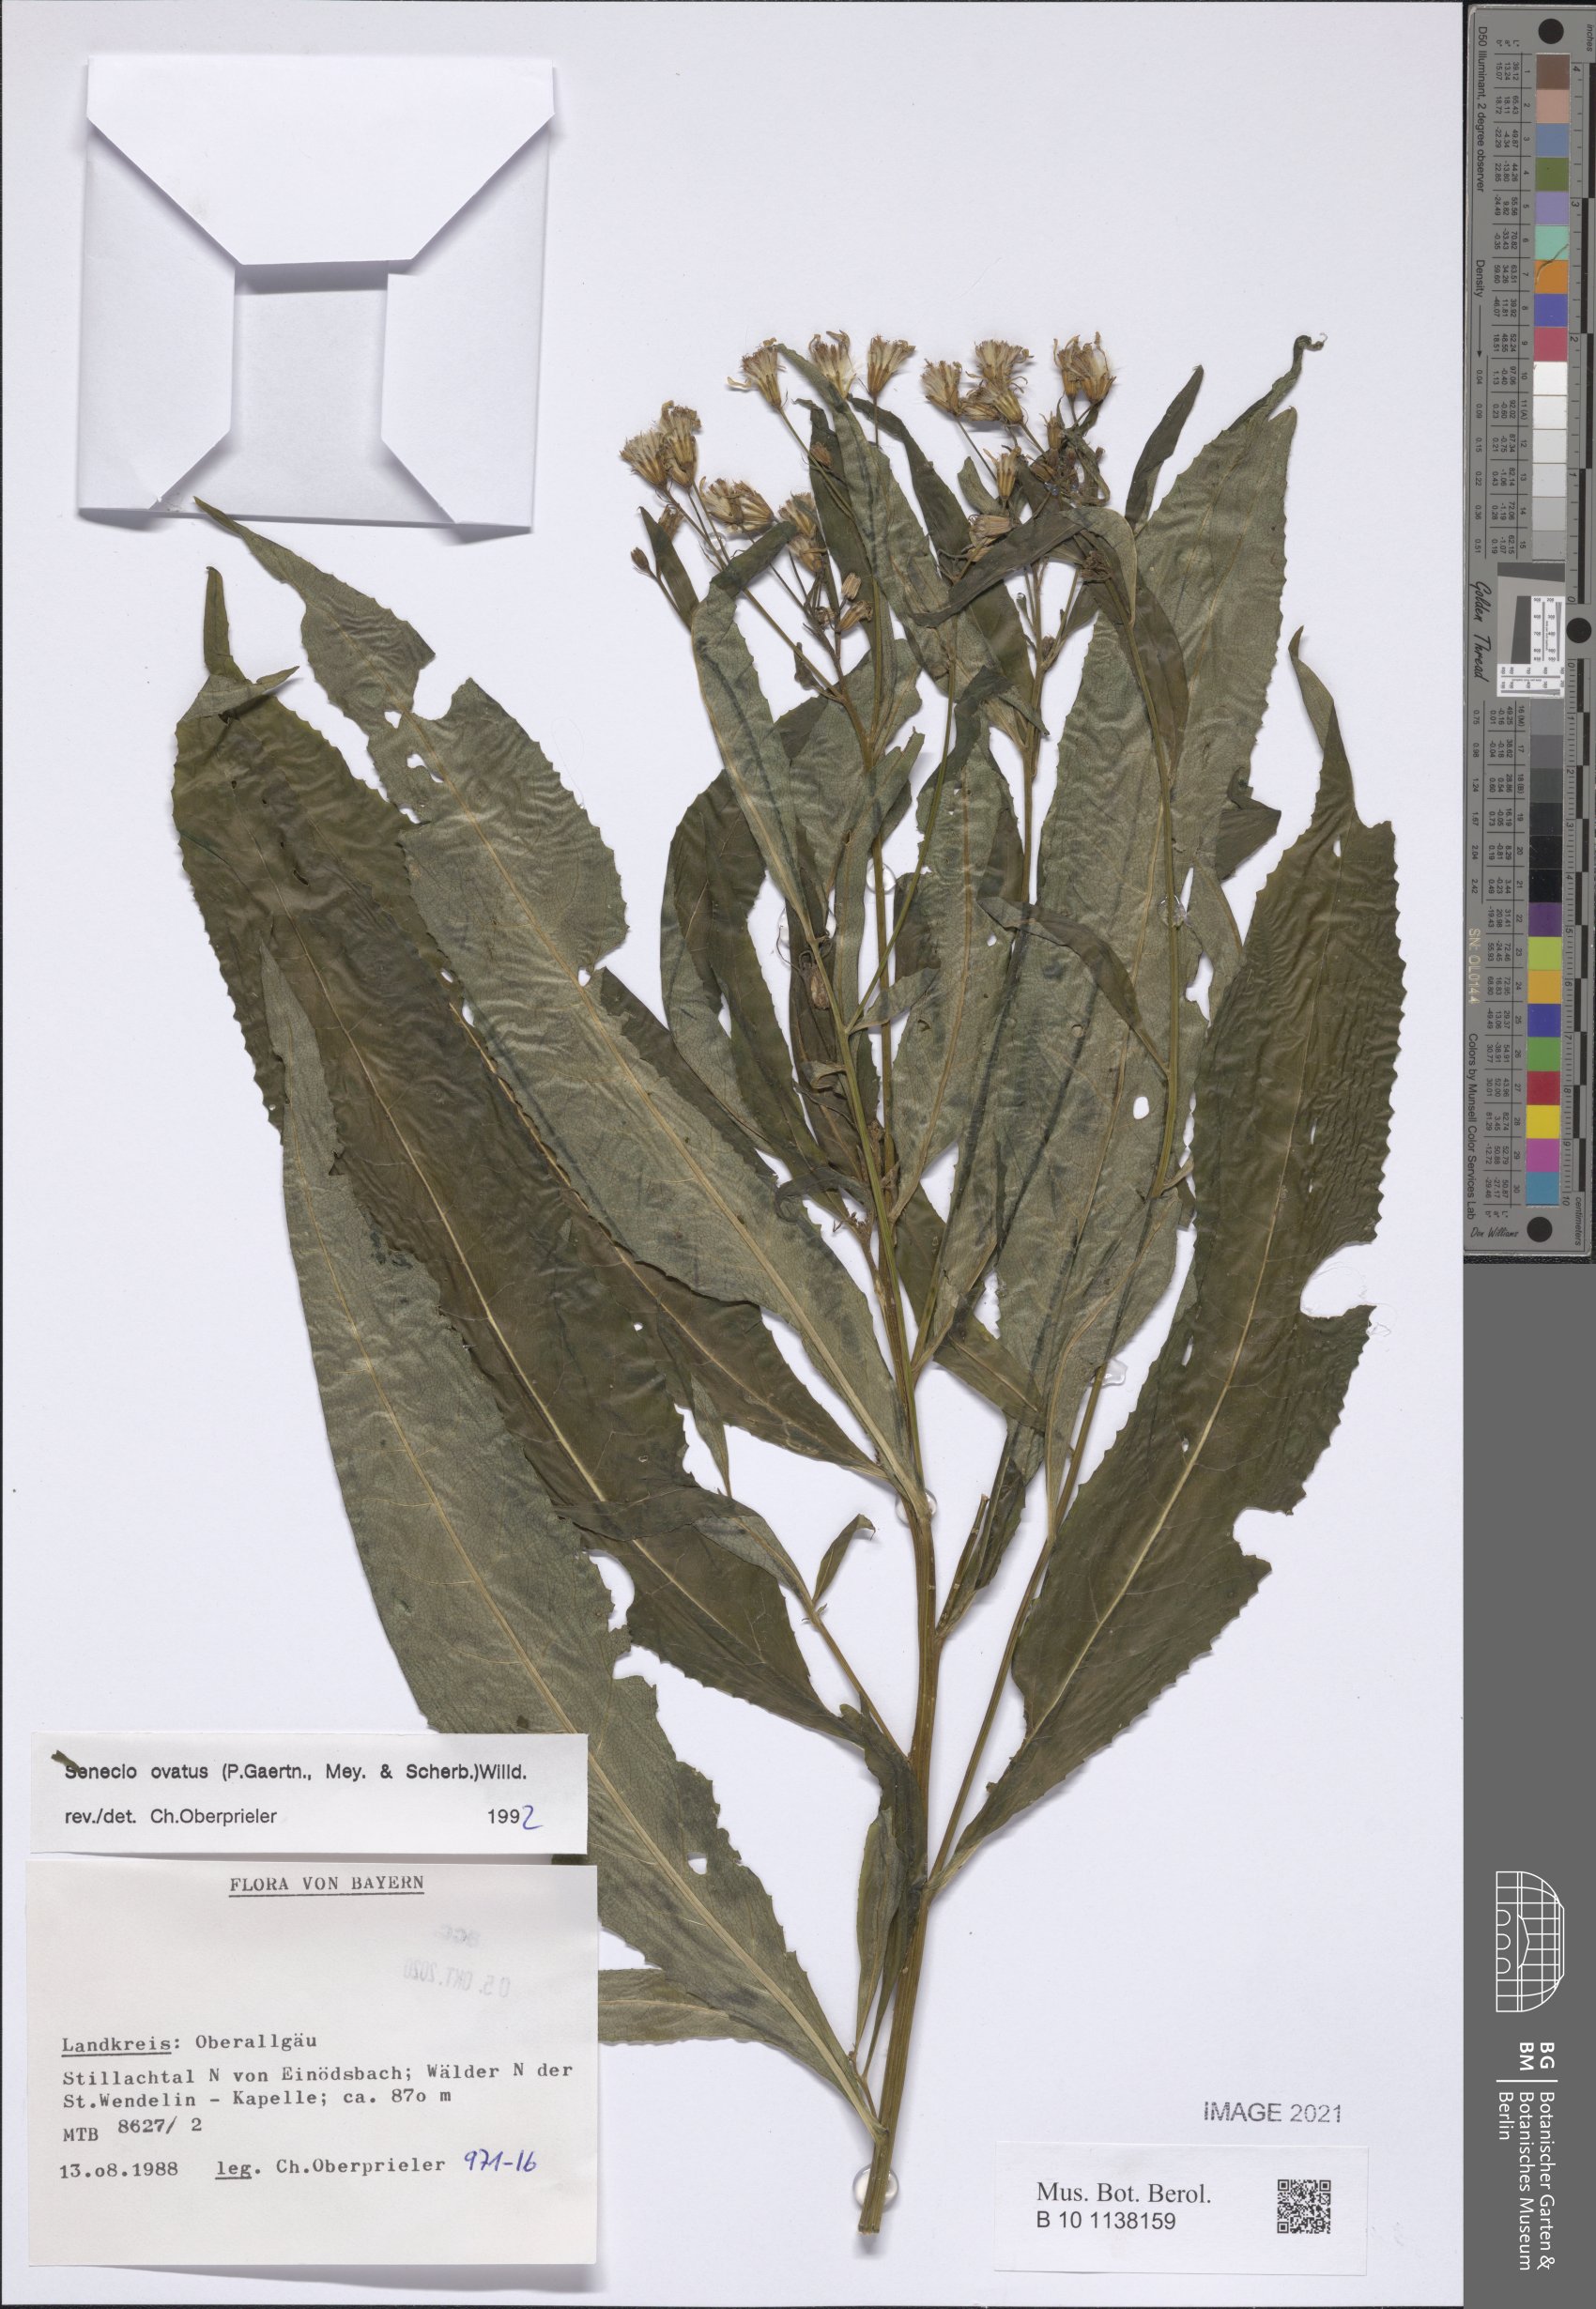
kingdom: Plantae
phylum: Tracheophyta
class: Magnoliopsida
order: Asterales
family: Asteraceae
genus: Senecio
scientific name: Senecio ovatus
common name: Wood ragwort
